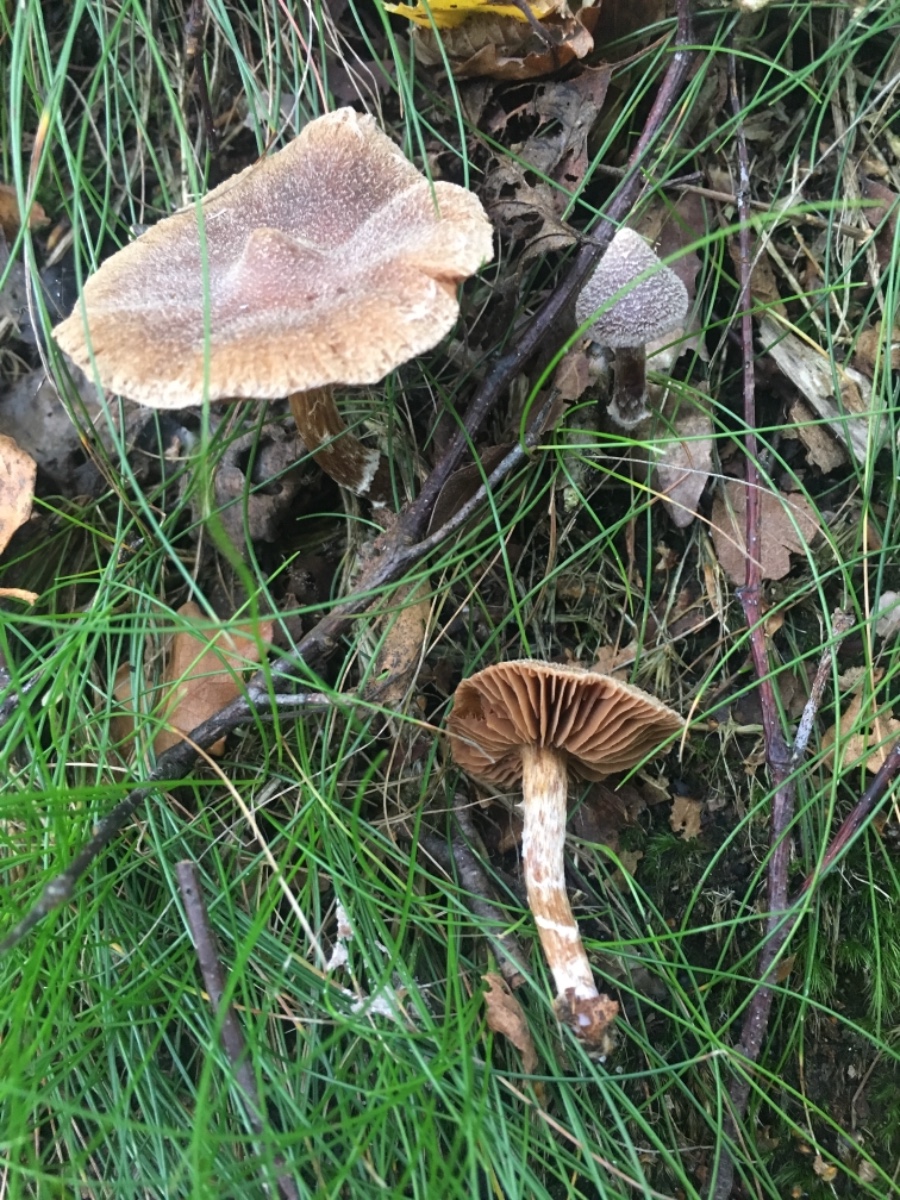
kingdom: Fungi
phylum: Basidiomycota
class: Agaricomycetes
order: Agaricales
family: Cortinariaceae
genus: Cortinarius
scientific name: Cortinarius
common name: pelargonie-slørhat
